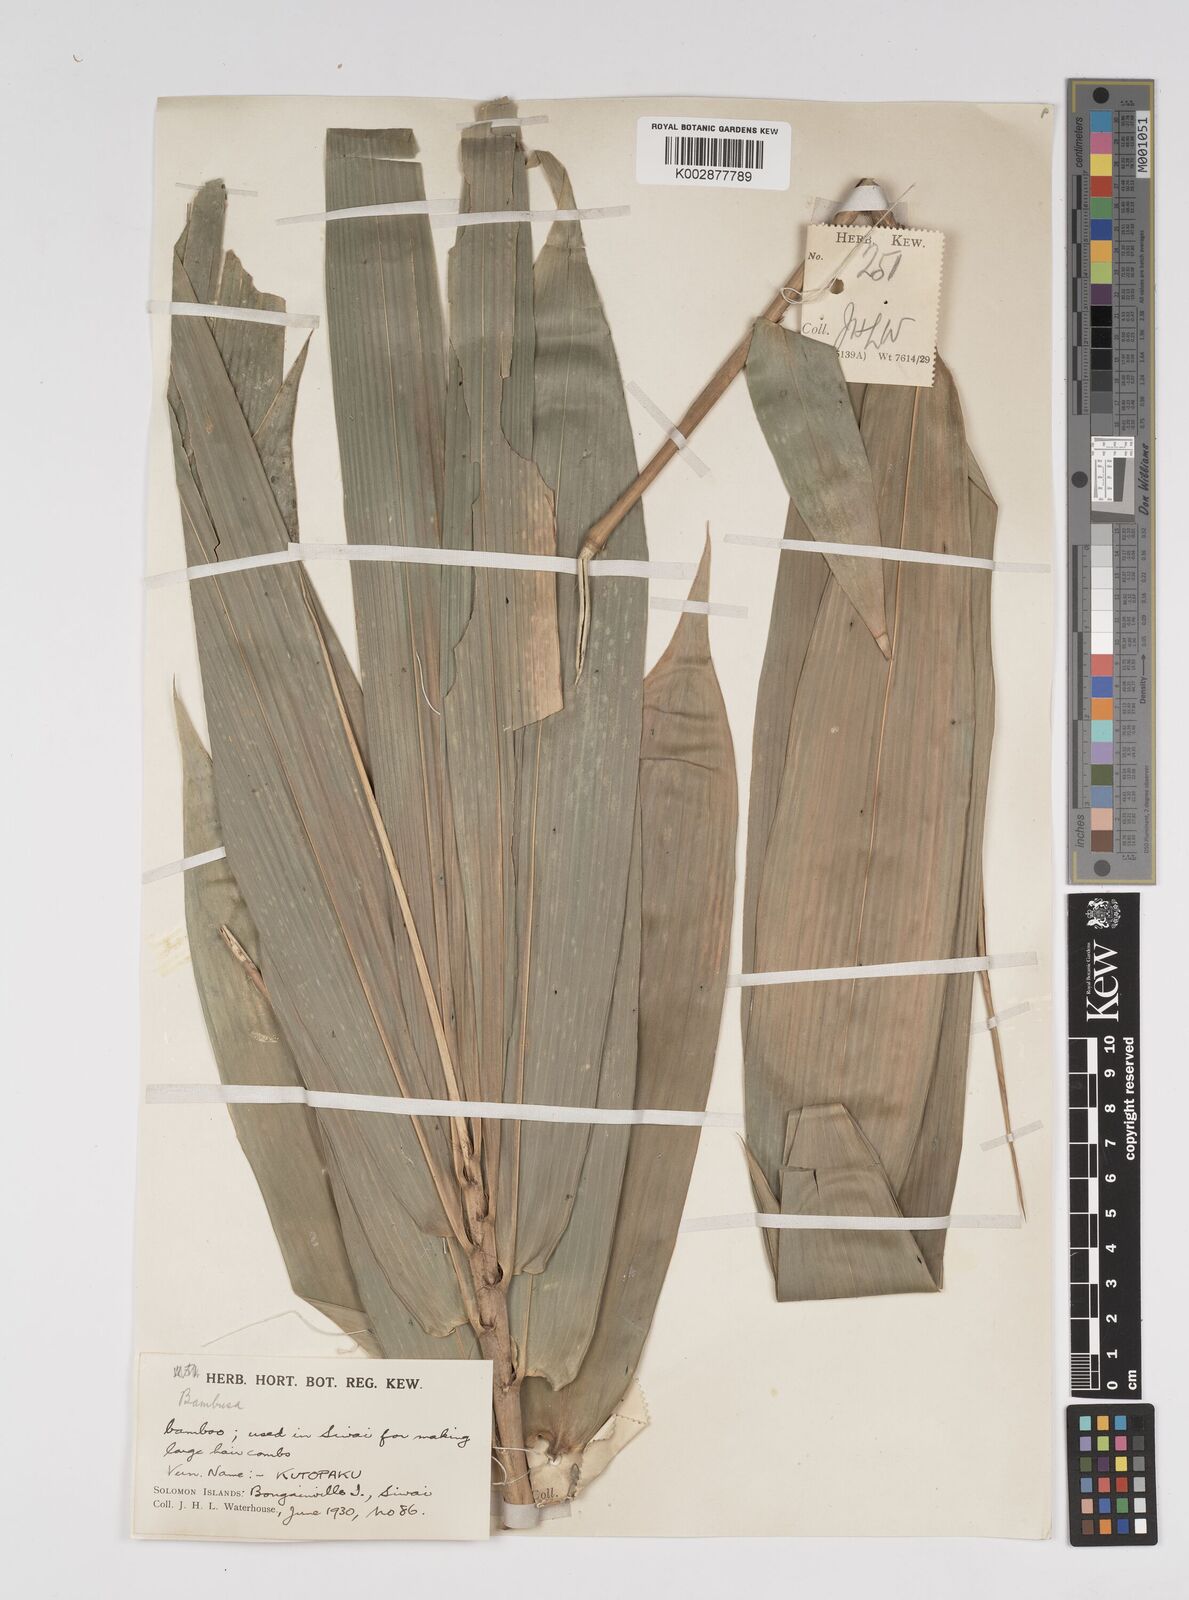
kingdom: Plantae
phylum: Tracheophyta
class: Liliopsida
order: Poales
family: Poaceae
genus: Bambusa
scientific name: Bambusa
